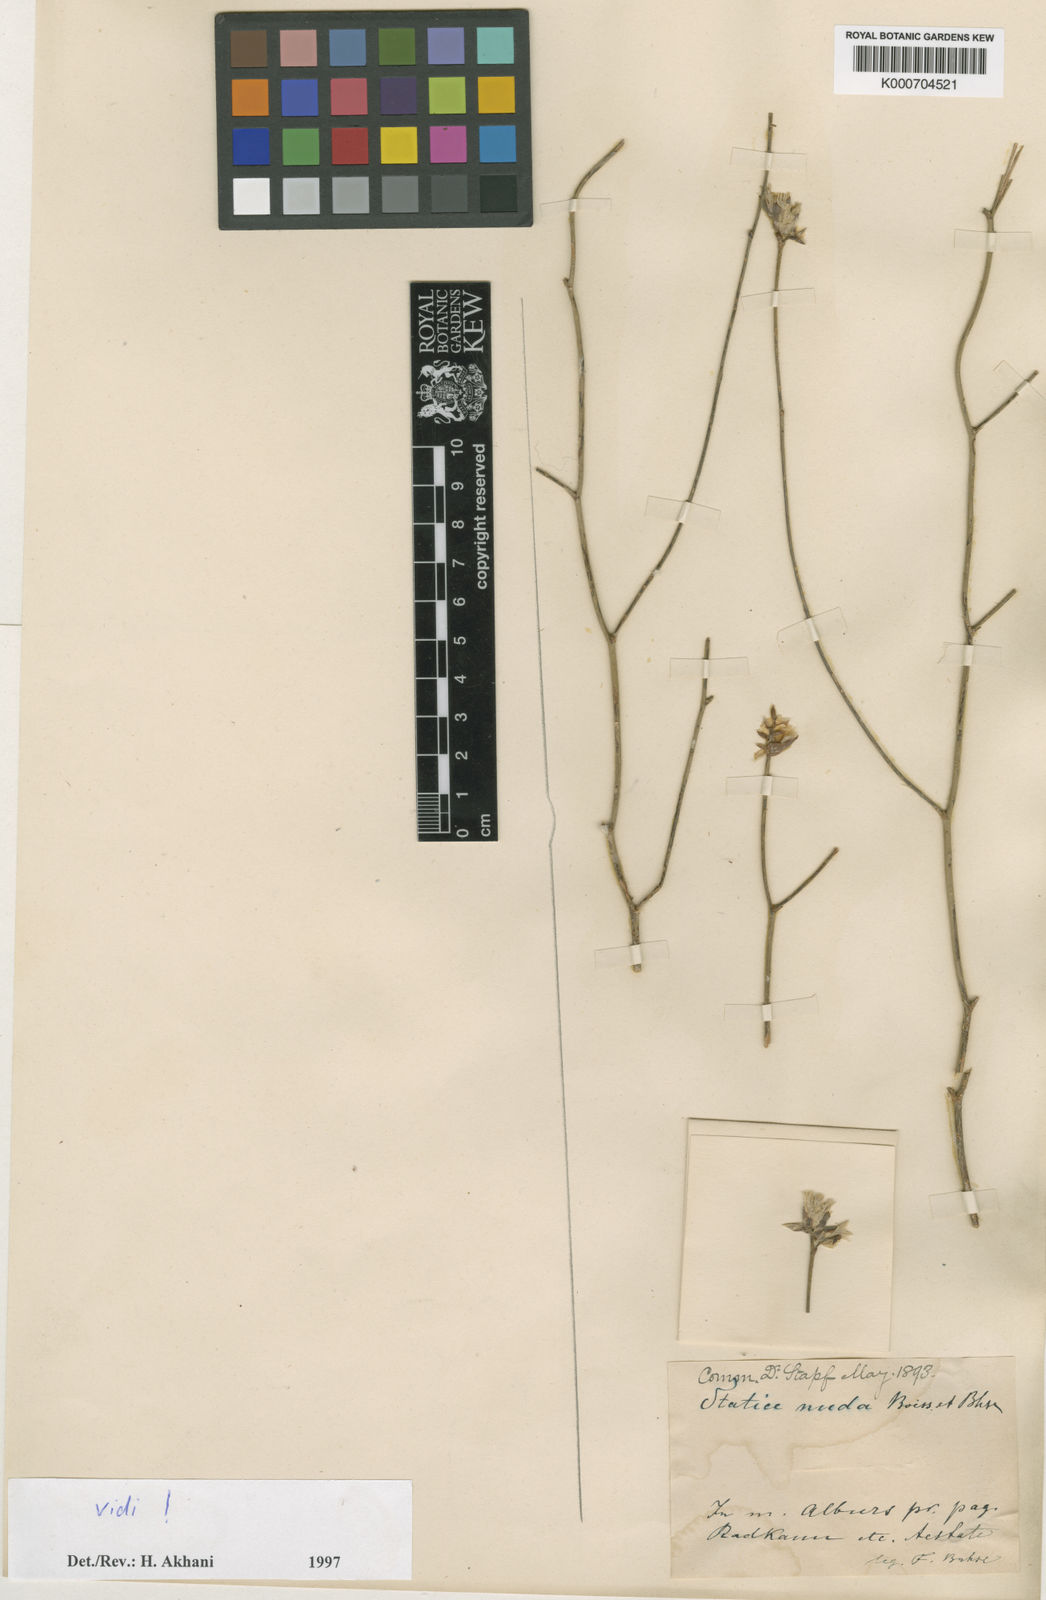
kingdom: Plantae
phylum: Tracheophyta
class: Magnoliopsida
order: Caryophyllales
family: Plumbaginaceae
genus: Limonium
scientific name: Limonium nudum
